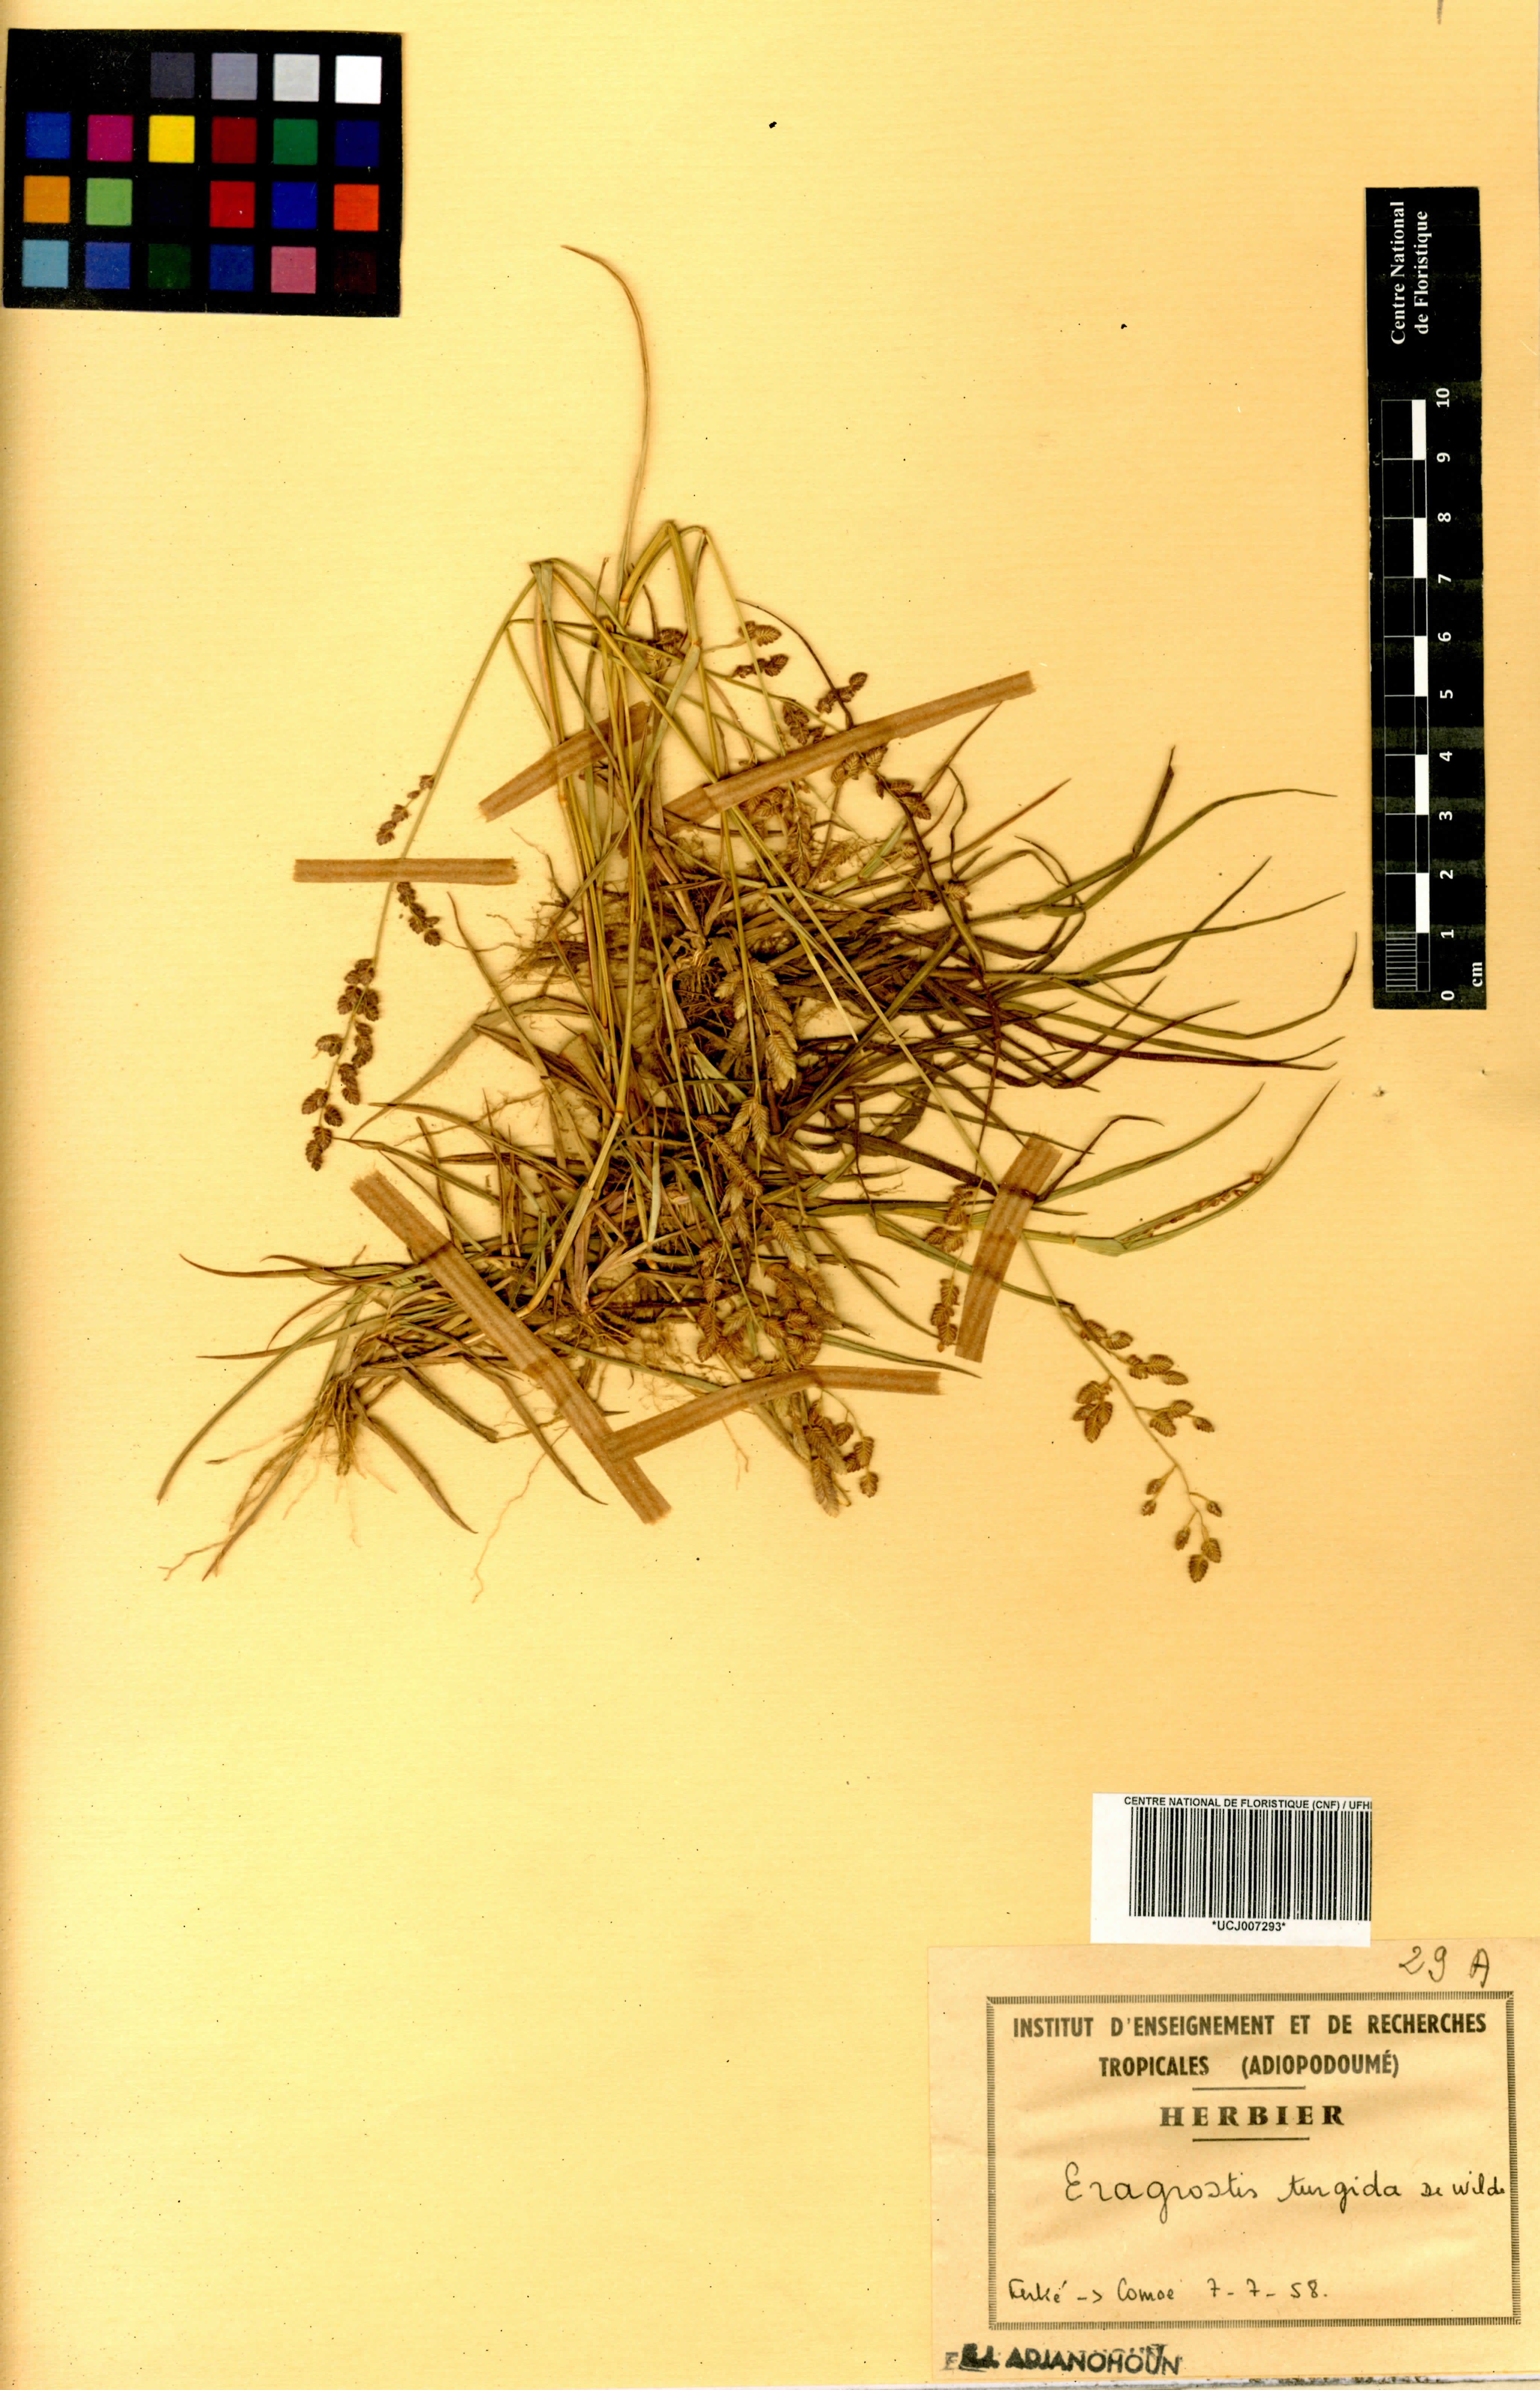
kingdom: Plantae
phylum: Tracheophyta
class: Liliopsida
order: Poales
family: Poaceae
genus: Eragrostis
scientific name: Eragrostis turgida
